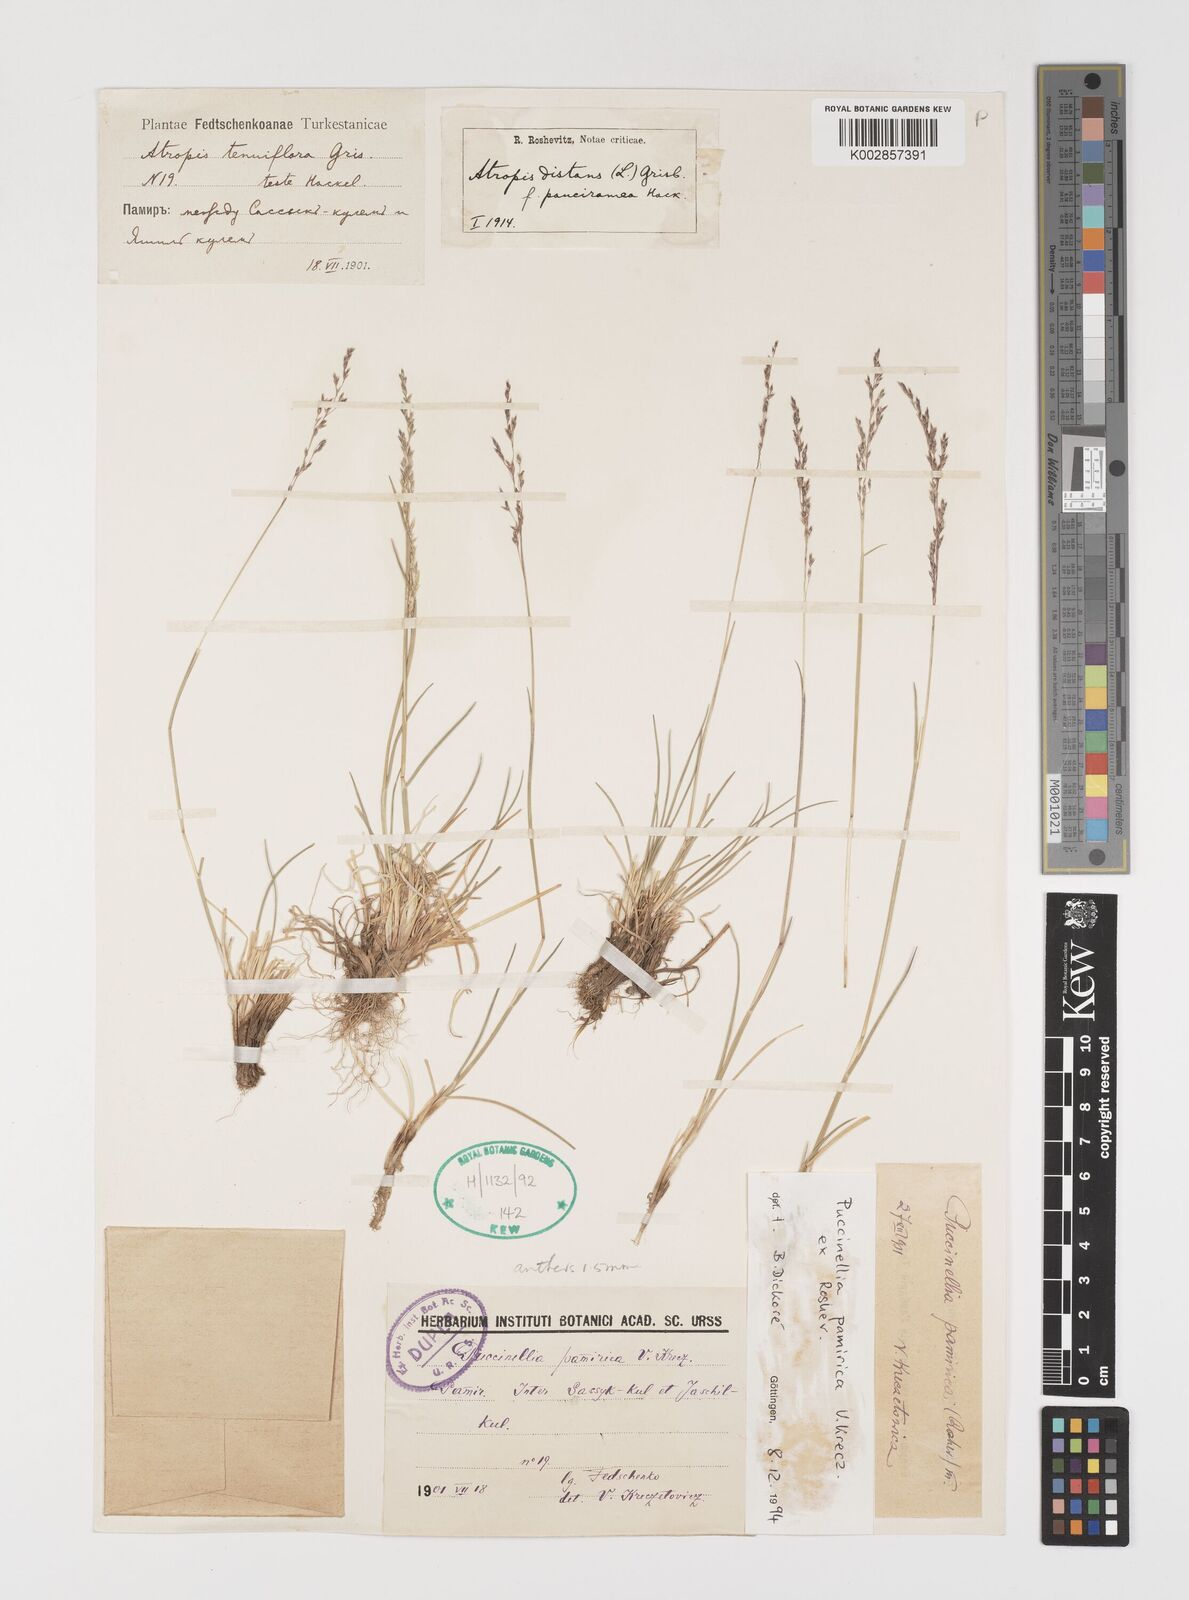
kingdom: Plantae
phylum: Tracheophyta
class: Liliopsida
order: Poales
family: Poaceae
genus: Puccinellia
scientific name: Puccinellia pamirica
